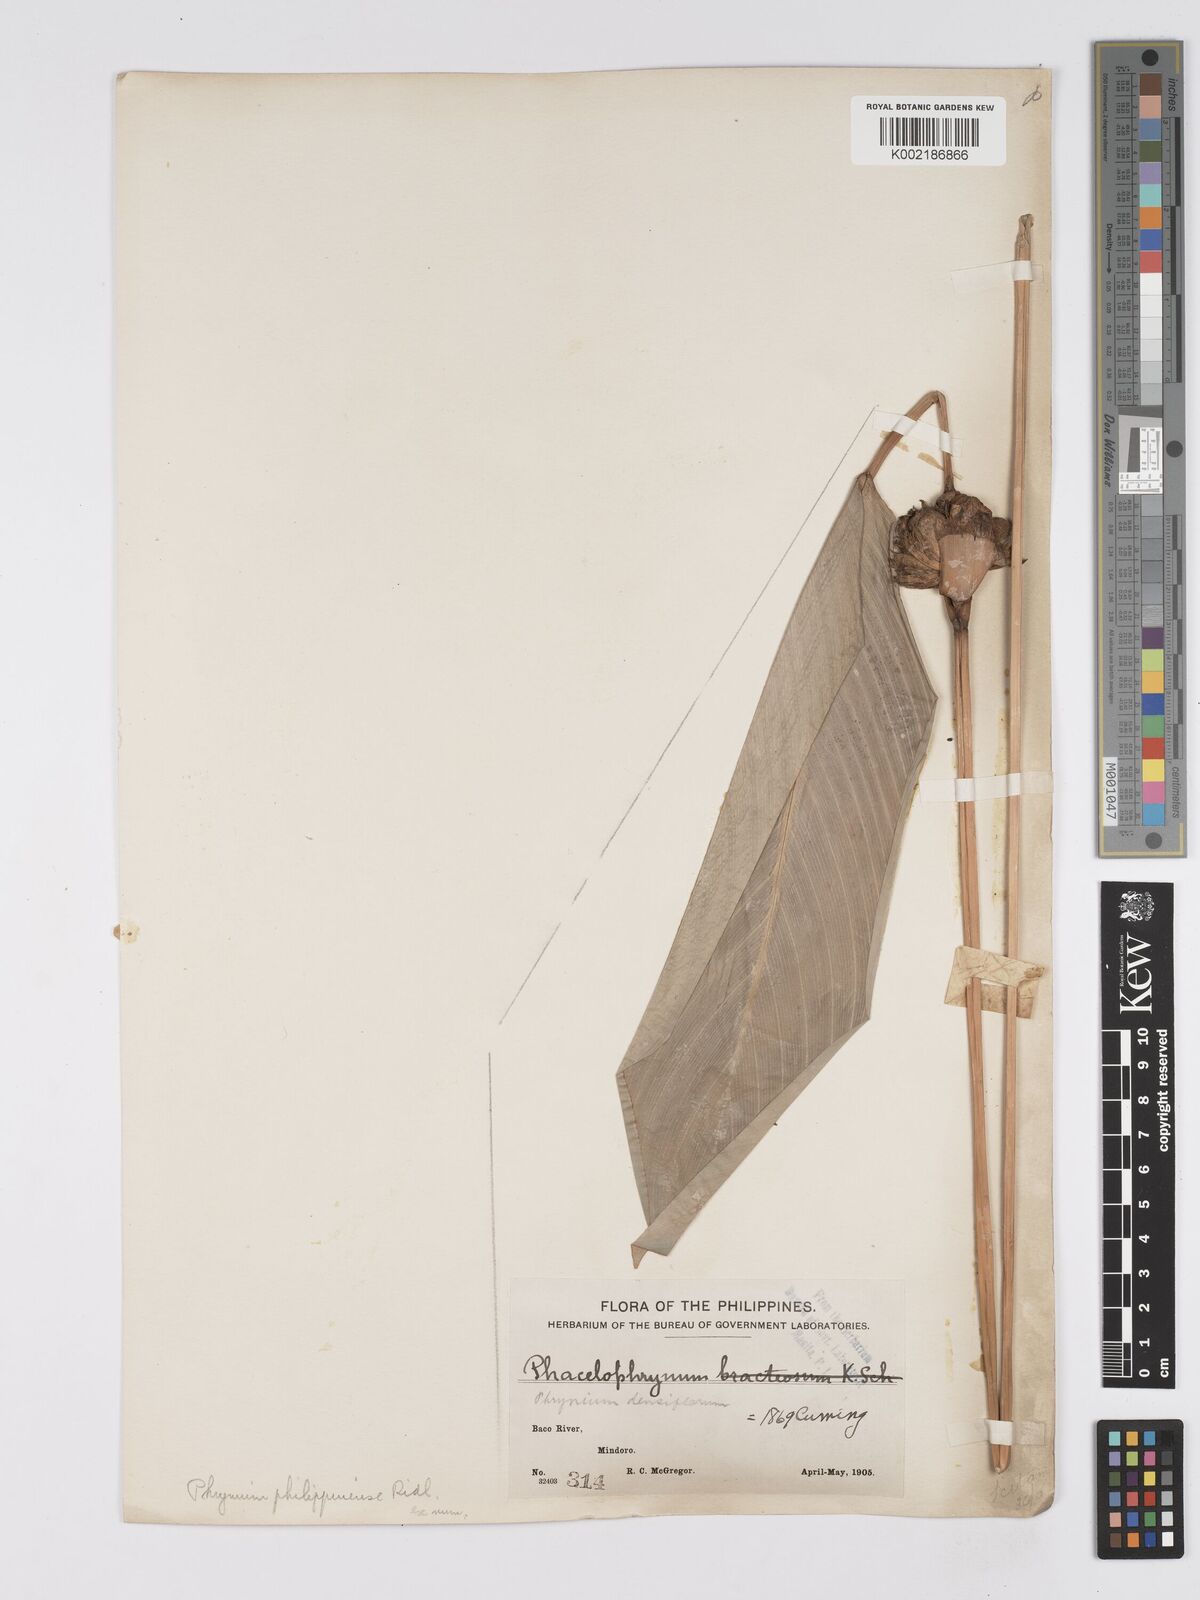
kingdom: Plantae
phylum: Tracheophyta
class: Liliopsida
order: Zingiberales
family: Marantaceae
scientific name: Marantaceae
